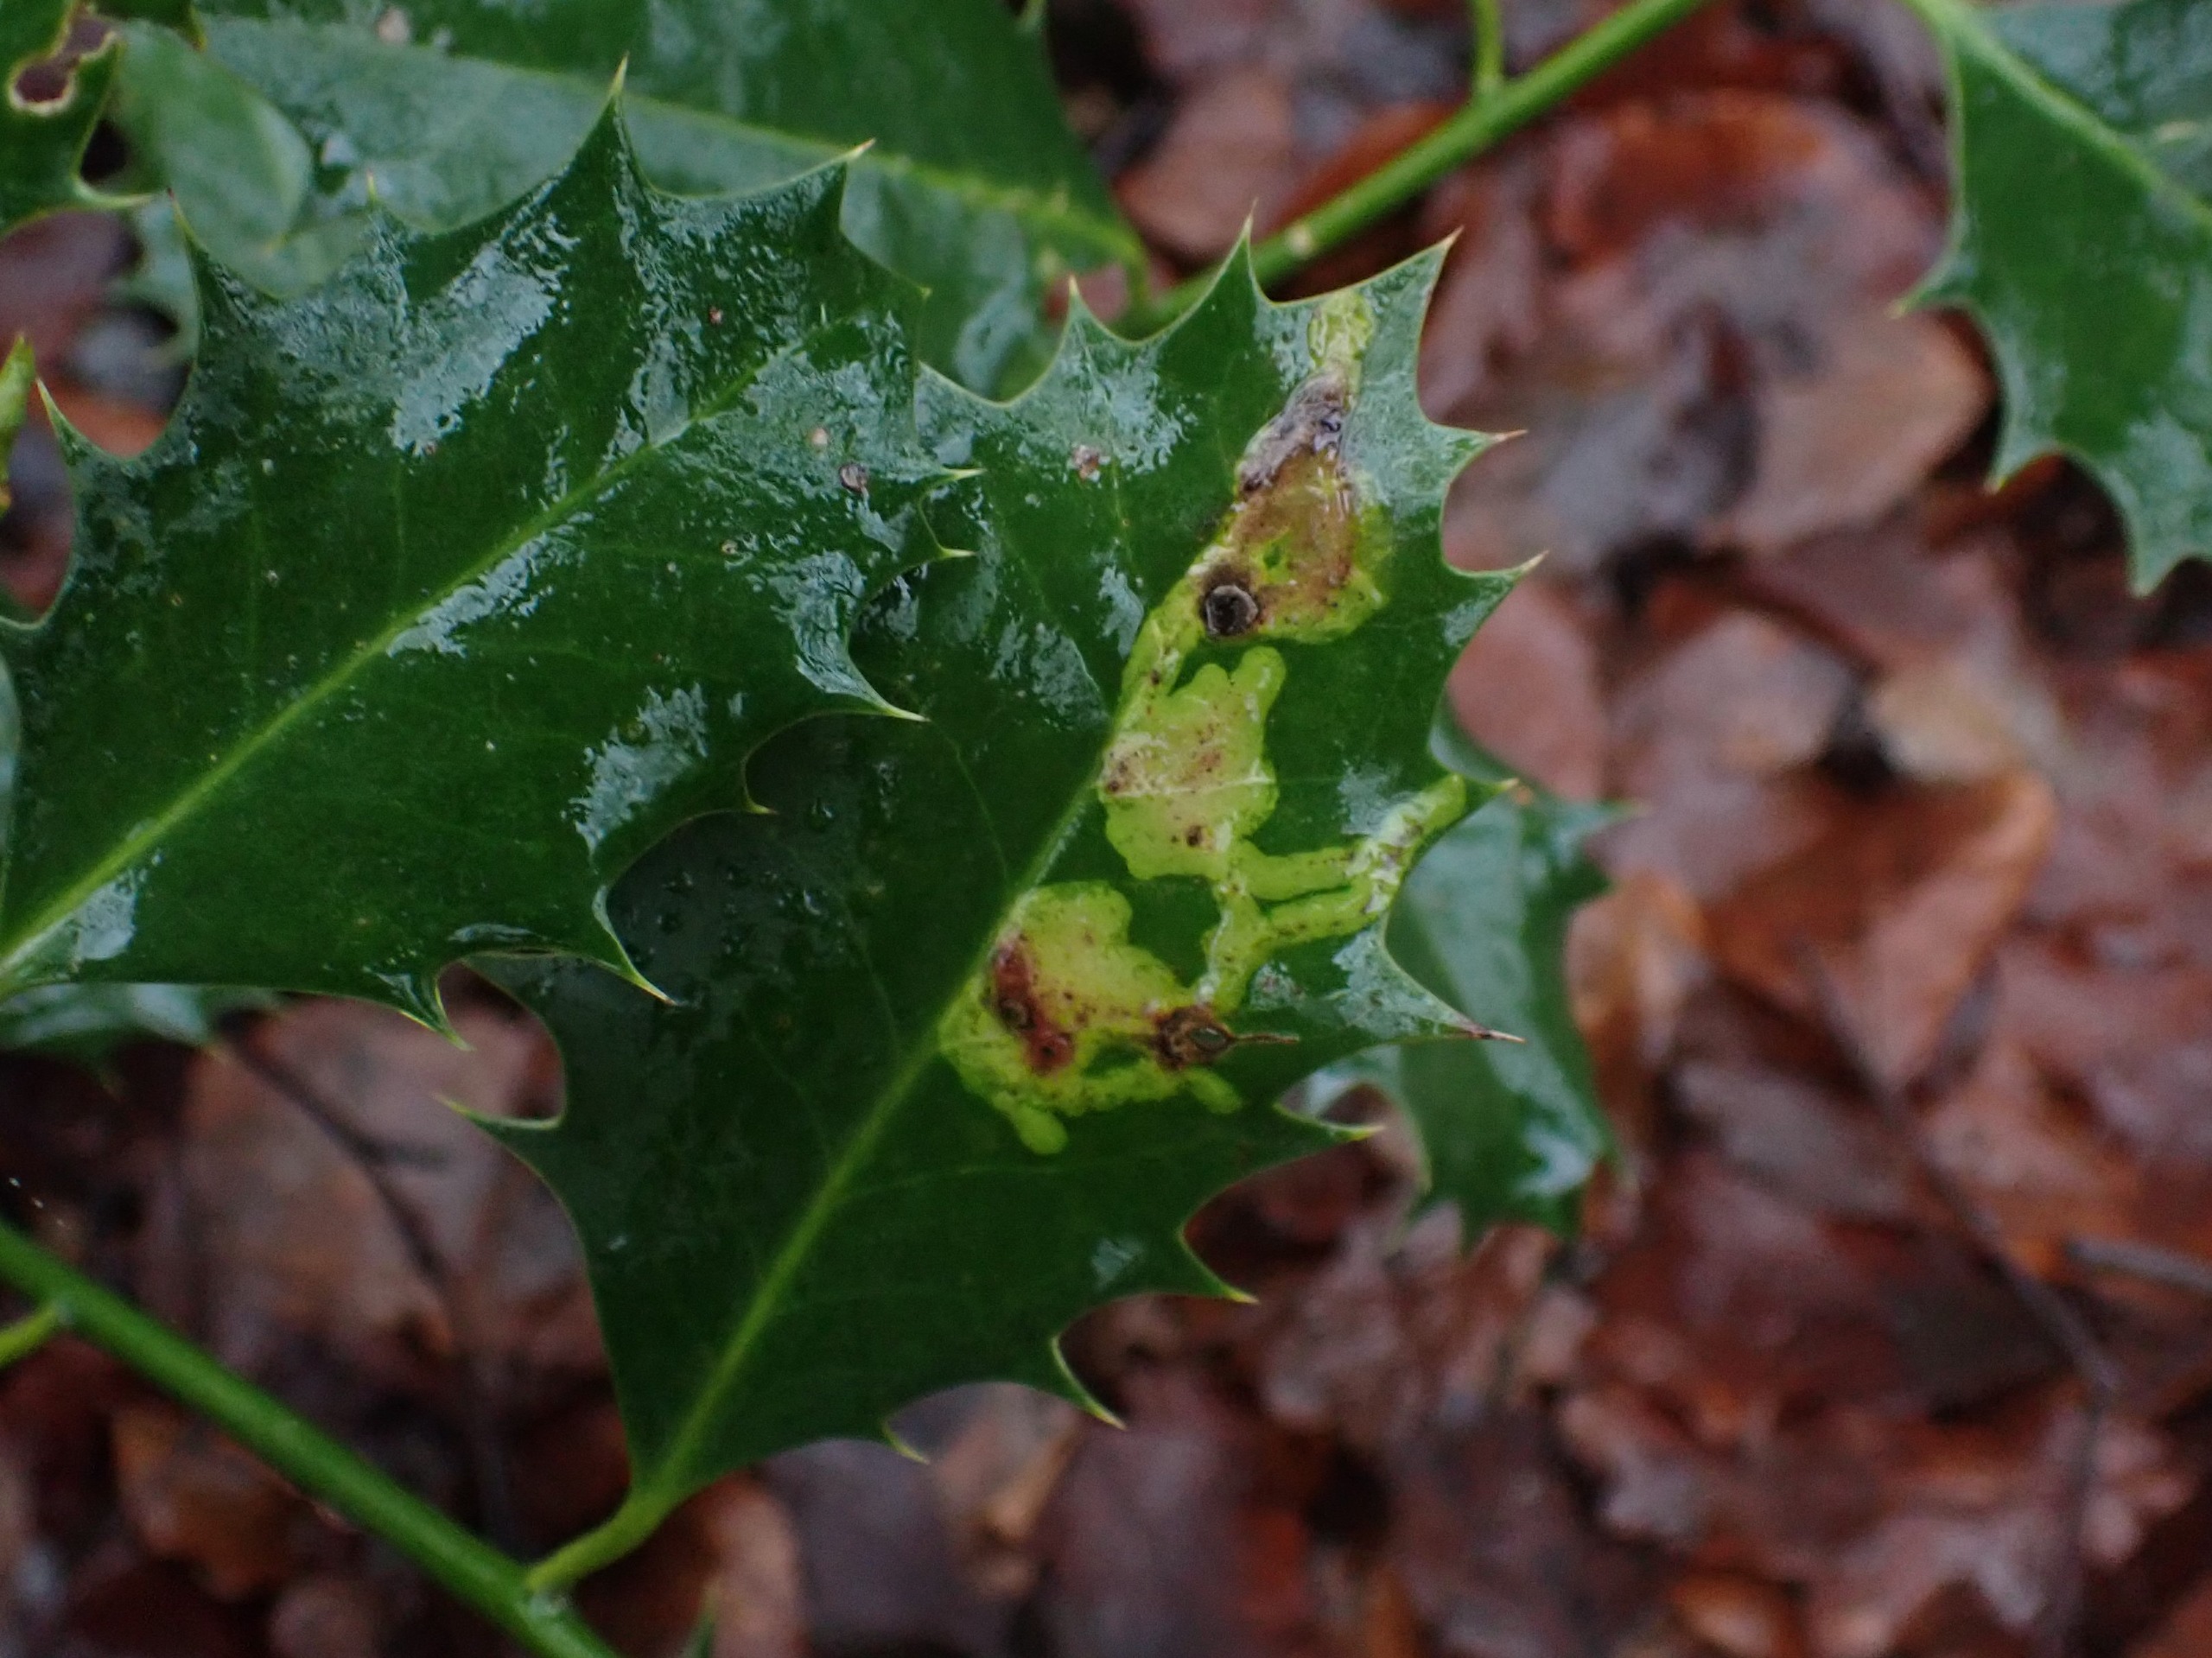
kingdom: Animalia
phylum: Arthropoda
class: Insecta
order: Diptera
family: Agromyzidae
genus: Phytomyza
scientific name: Phytomyza ilicis
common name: Kristtornminérflue
